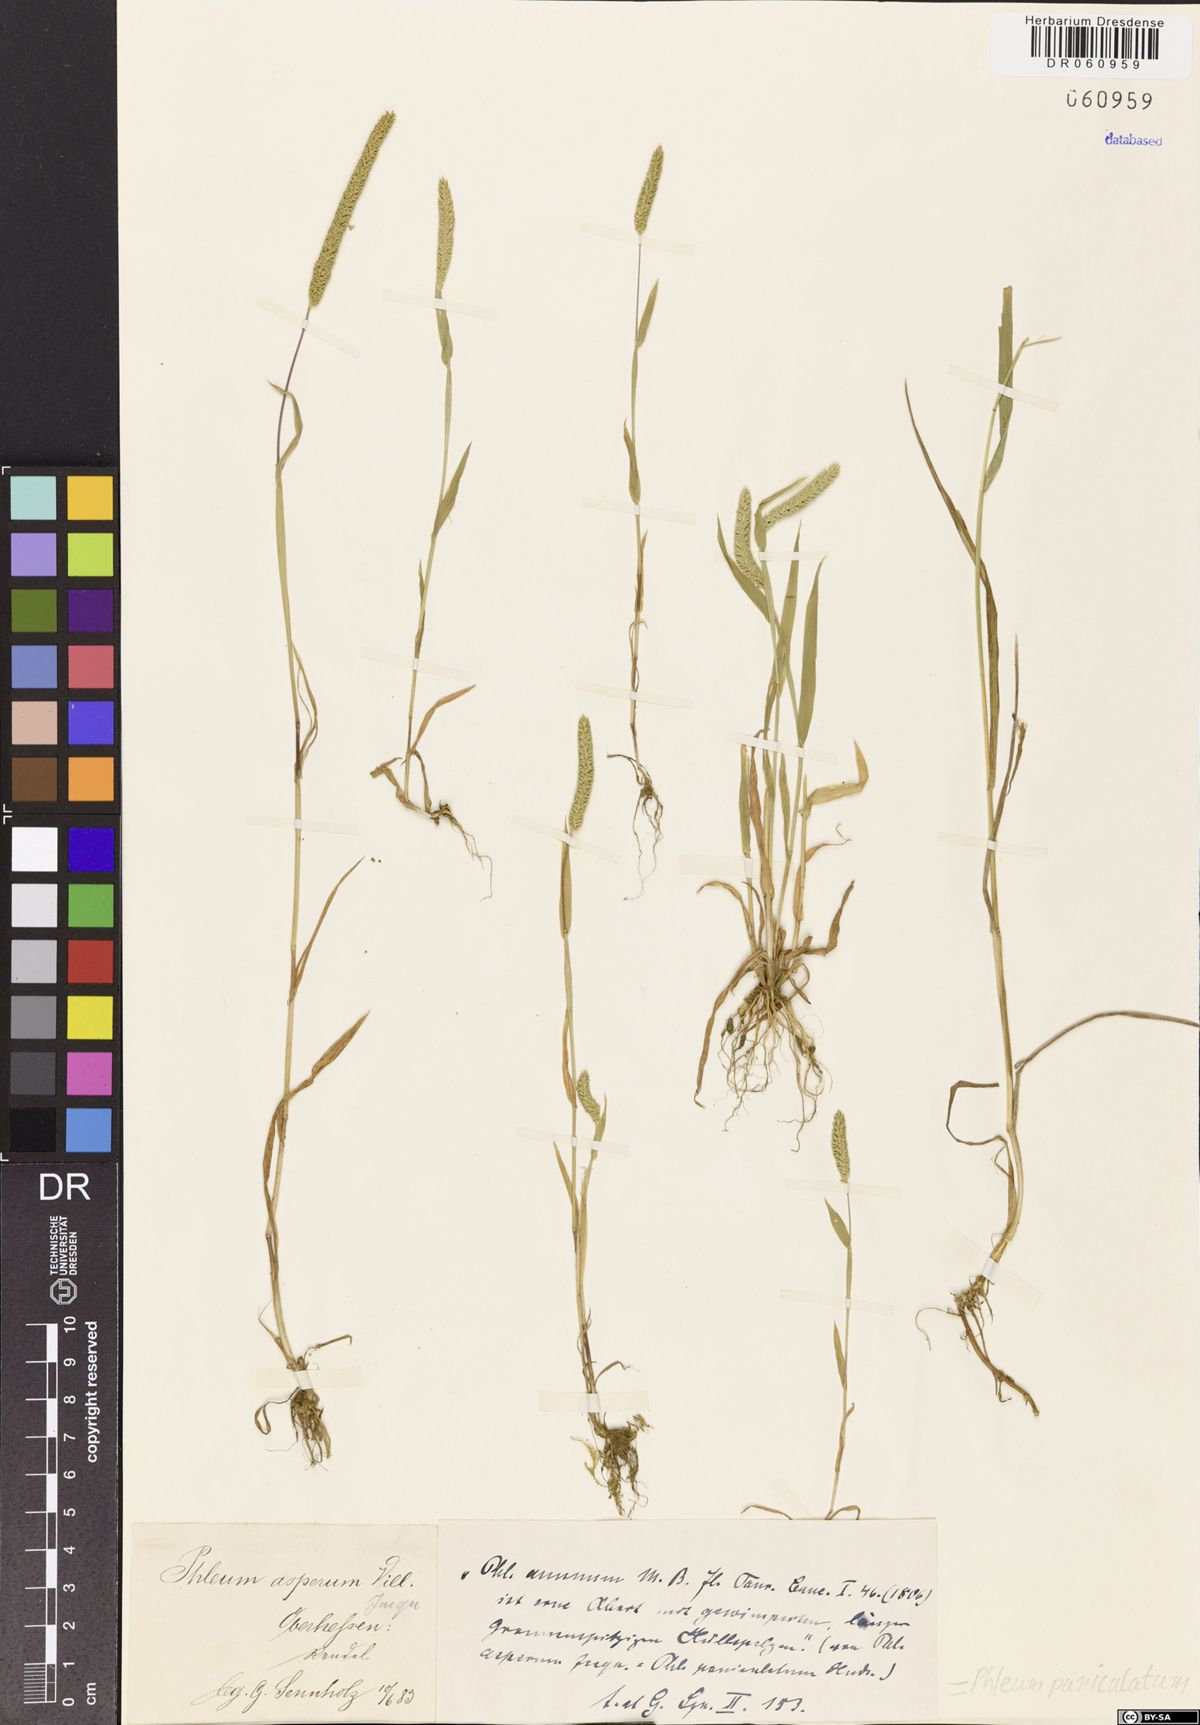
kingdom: Plantae
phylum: Tracheophyta
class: Liliopsida
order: Poales
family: Poaceae
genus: Phleum
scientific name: Phleum paniculatum
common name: British timothy
